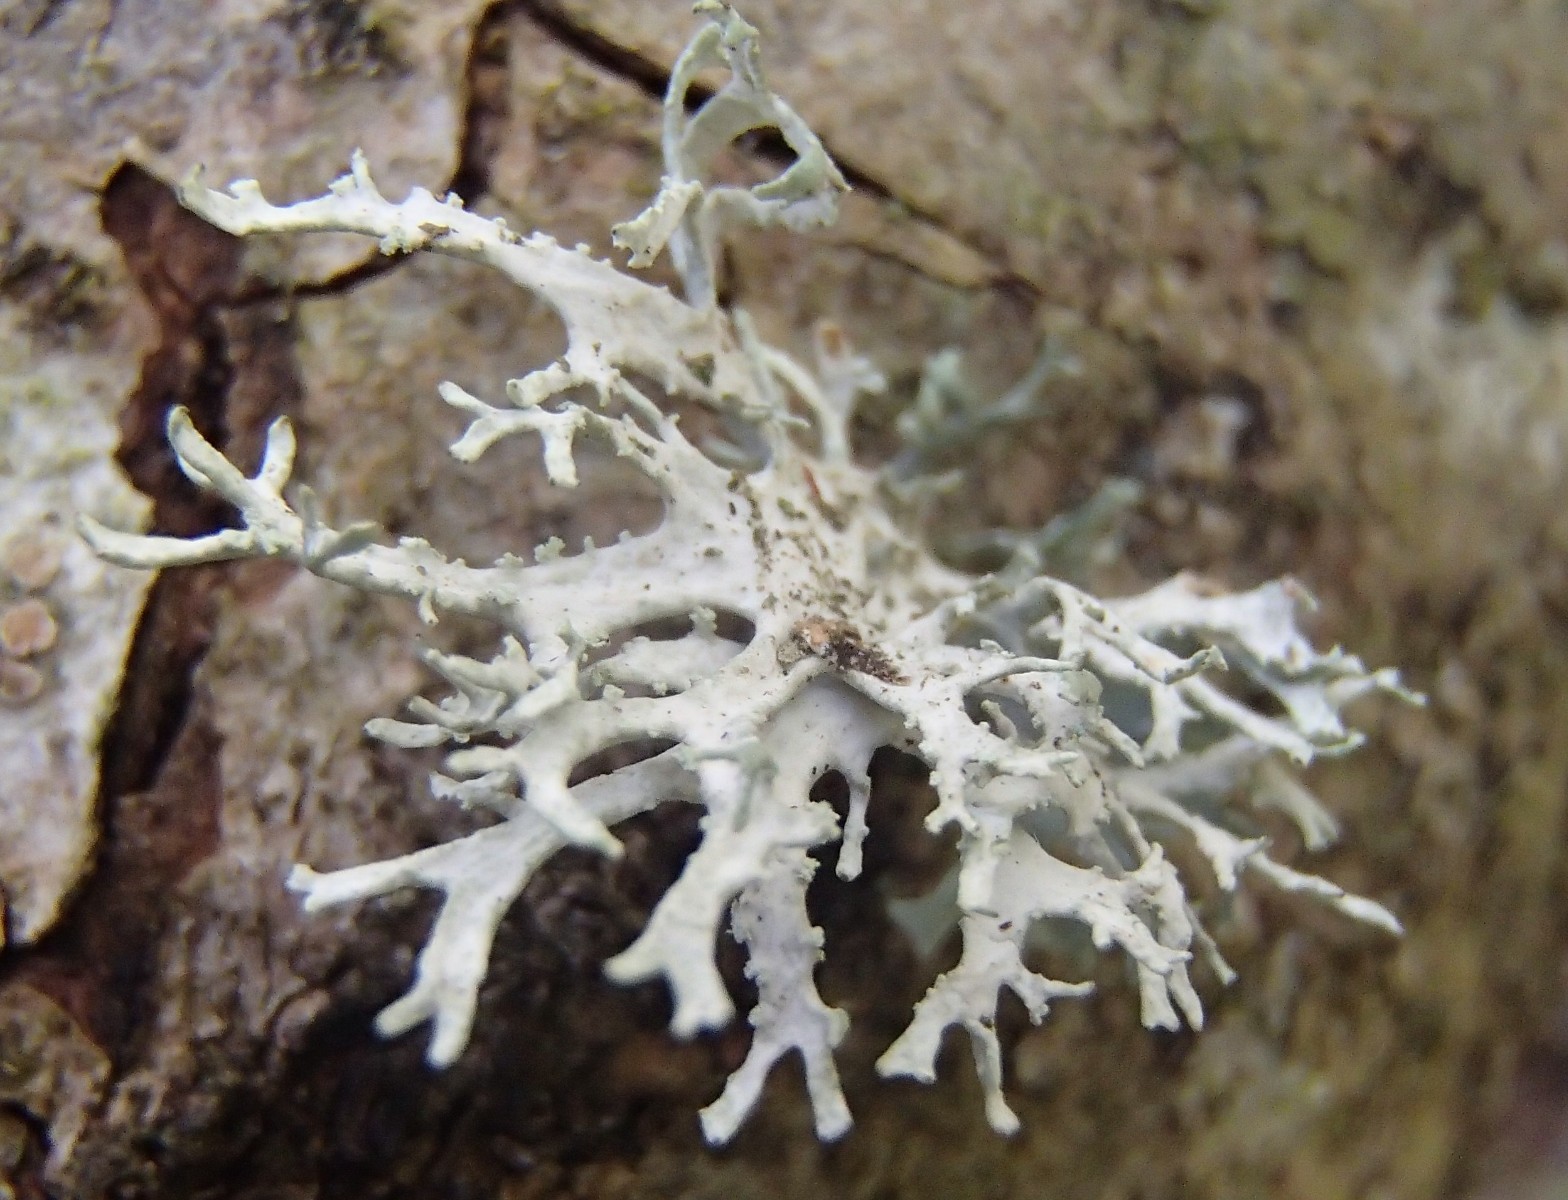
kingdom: Fungi
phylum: Ascomycota
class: Lecanoromycetes
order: Lecanorales
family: Parmeliaceae
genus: Evernia
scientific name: Evernia prunastri
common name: almindelig slåenlav
